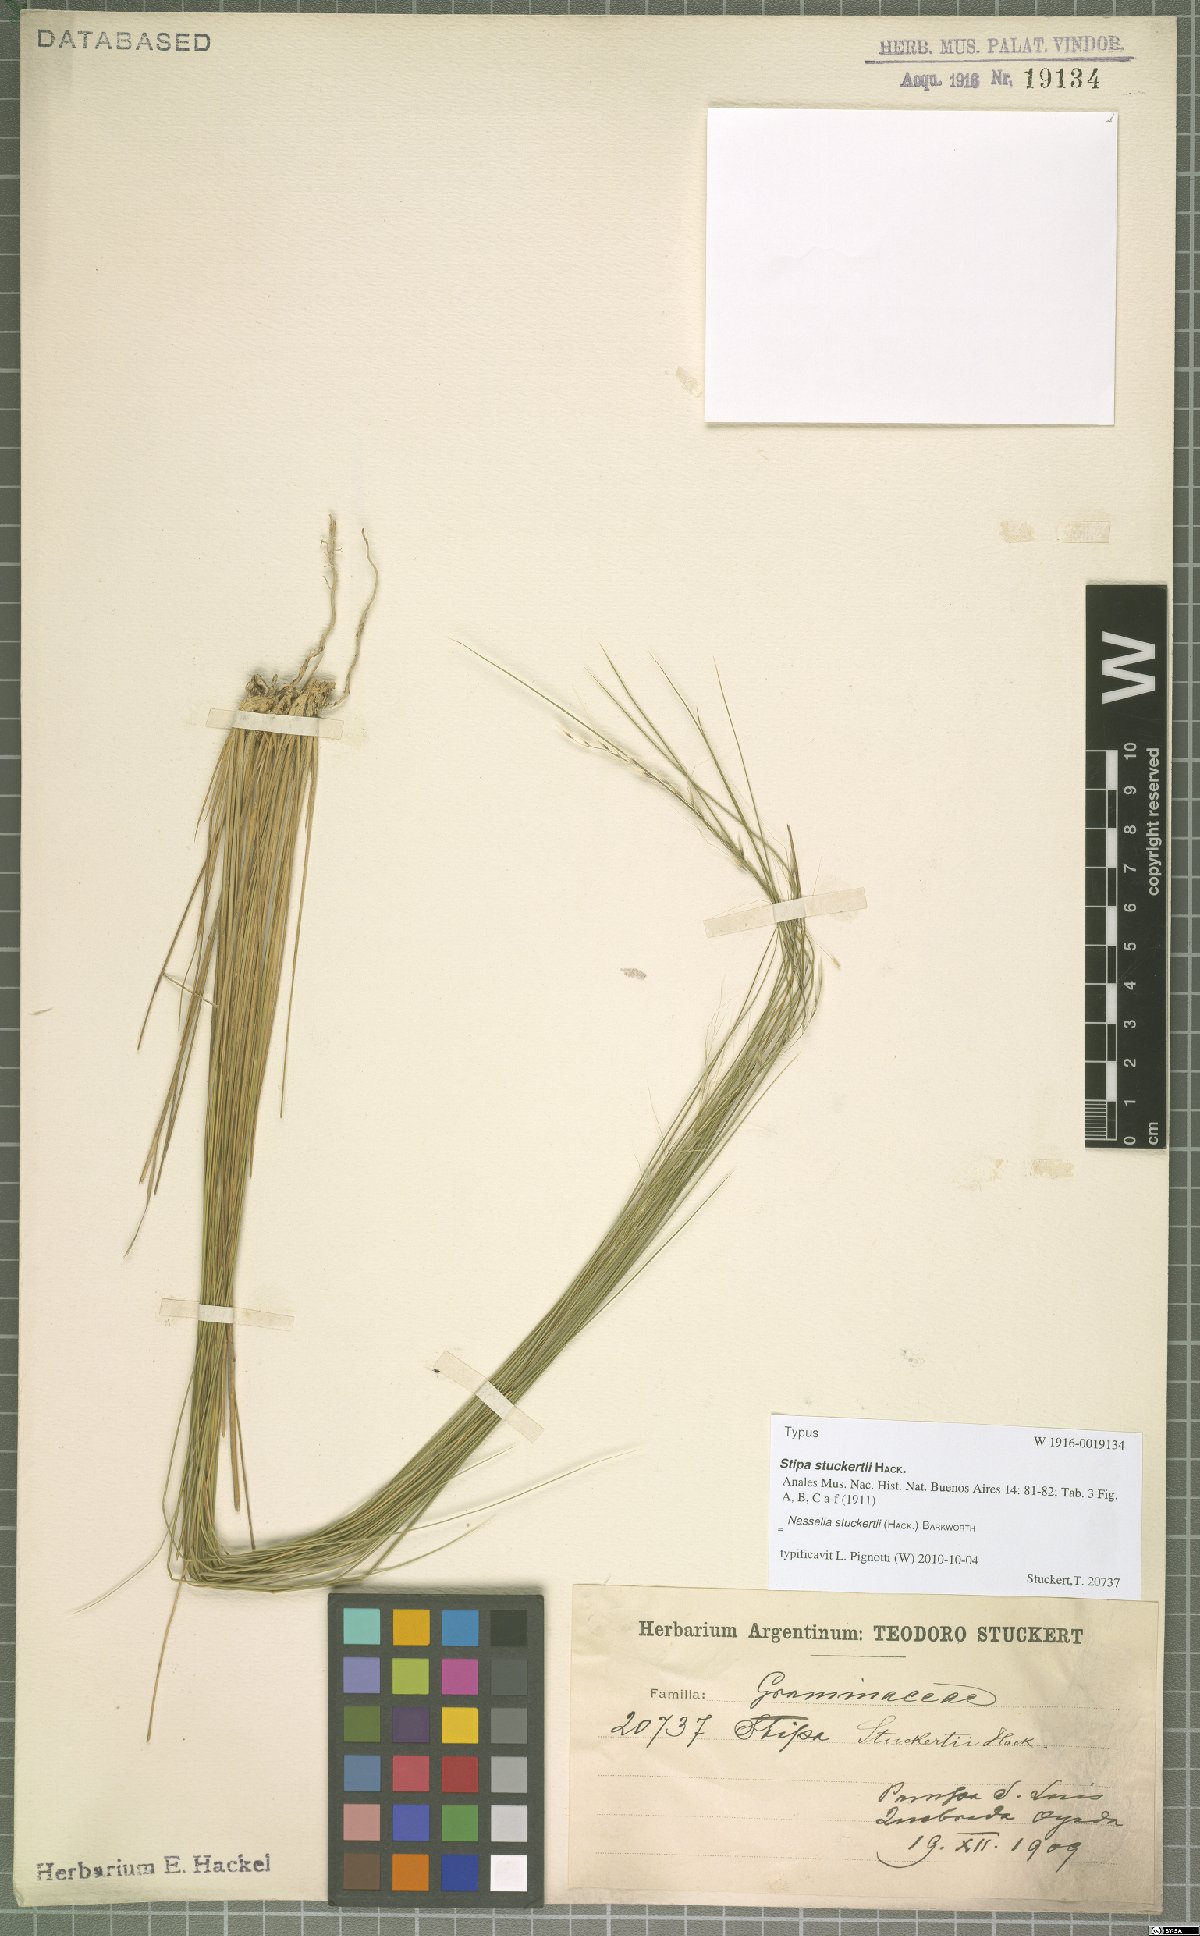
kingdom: Plantae
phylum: Tracheophyta
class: Liliopsida
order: Poales
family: Poaceae
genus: Nassella
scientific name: Nassella stuckertii
